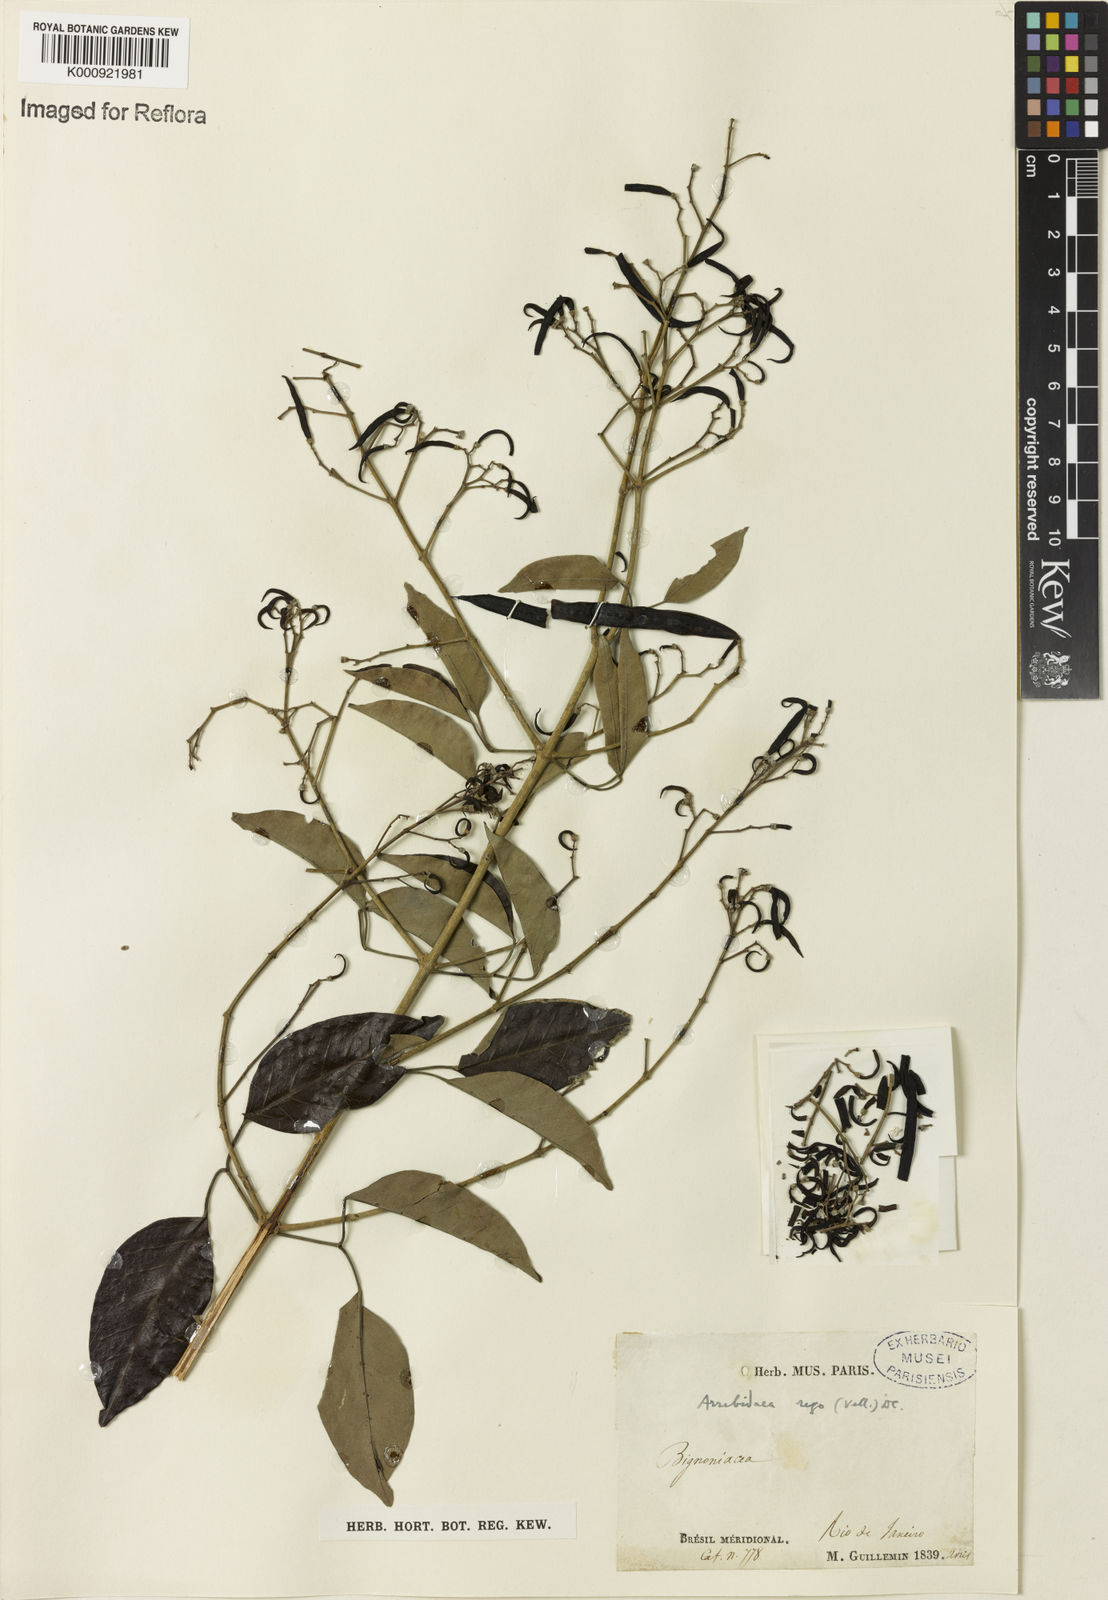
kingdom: Plantae
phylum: Tracheophyta
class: Magnoliopsida
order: Lamiales
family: Bignoniaceae
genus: Fridericia
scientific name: Fridericia rego
